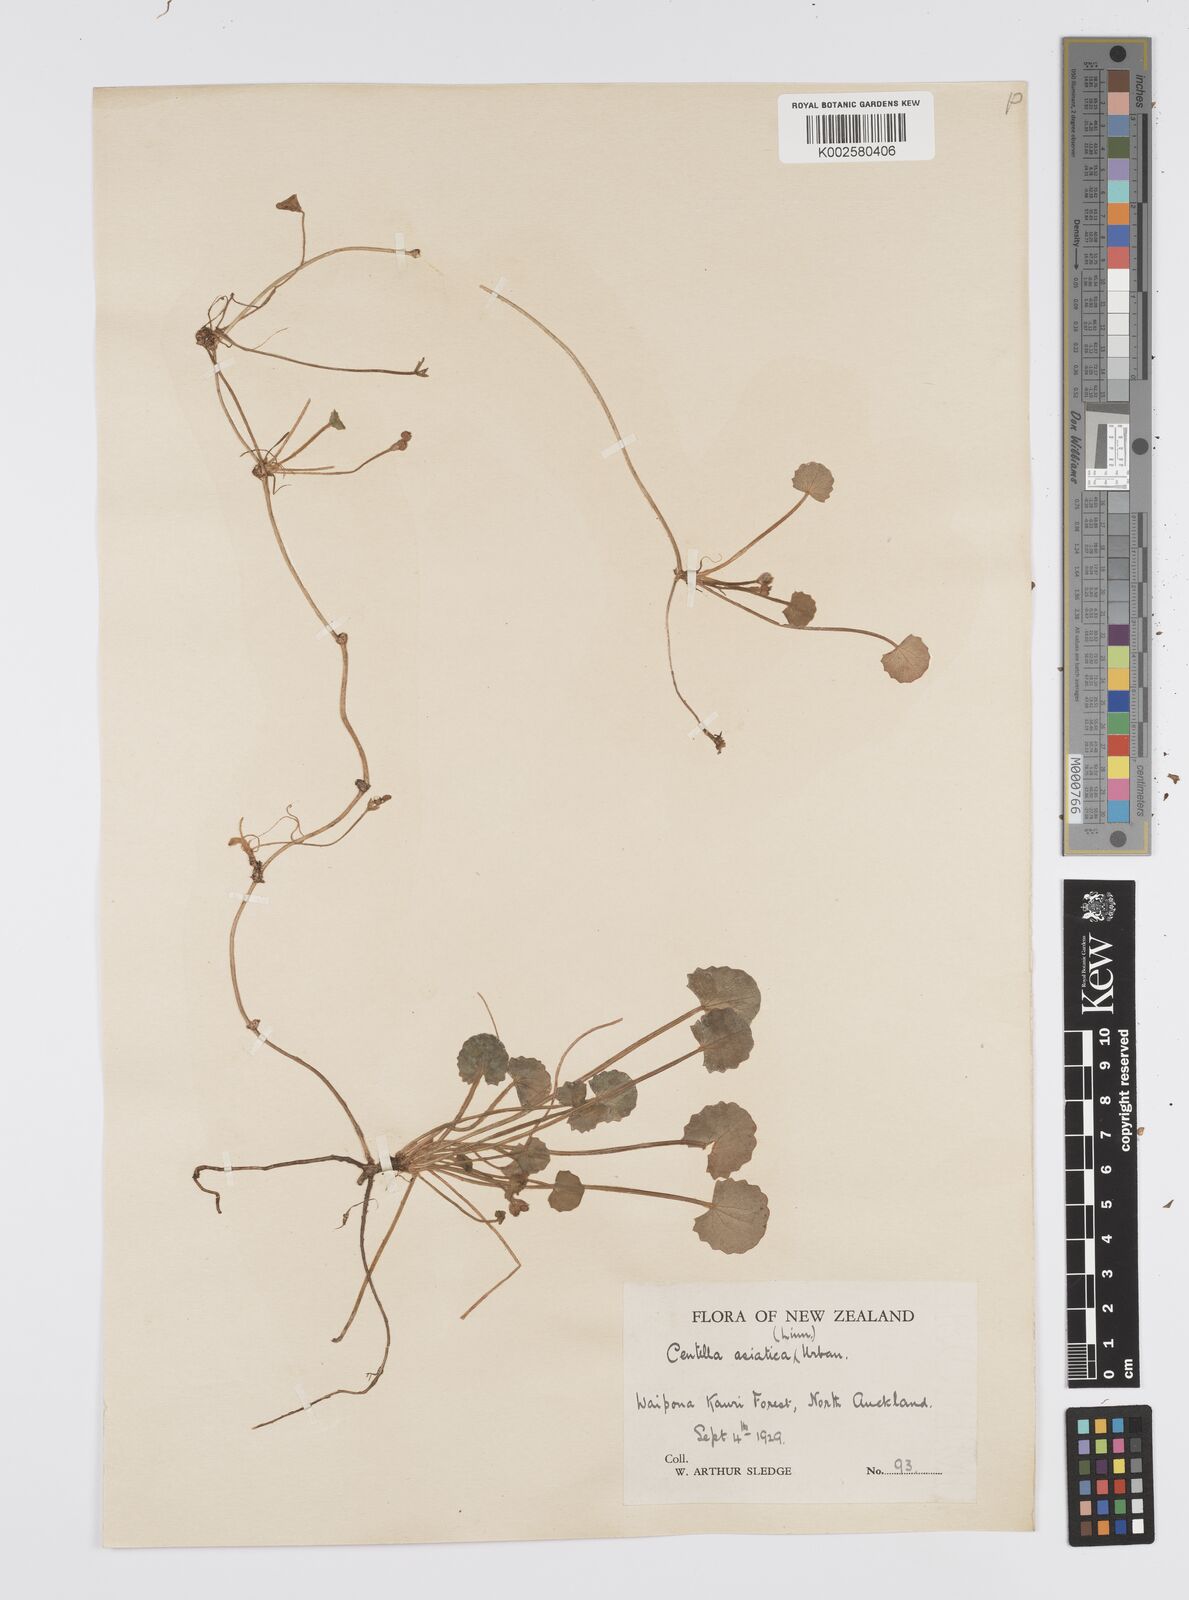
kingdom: Plantae
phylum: Tracheophyta
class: Magnoliopsida
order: Apiales
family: Apiaceae
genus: Centella
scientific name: Centella uniflora
